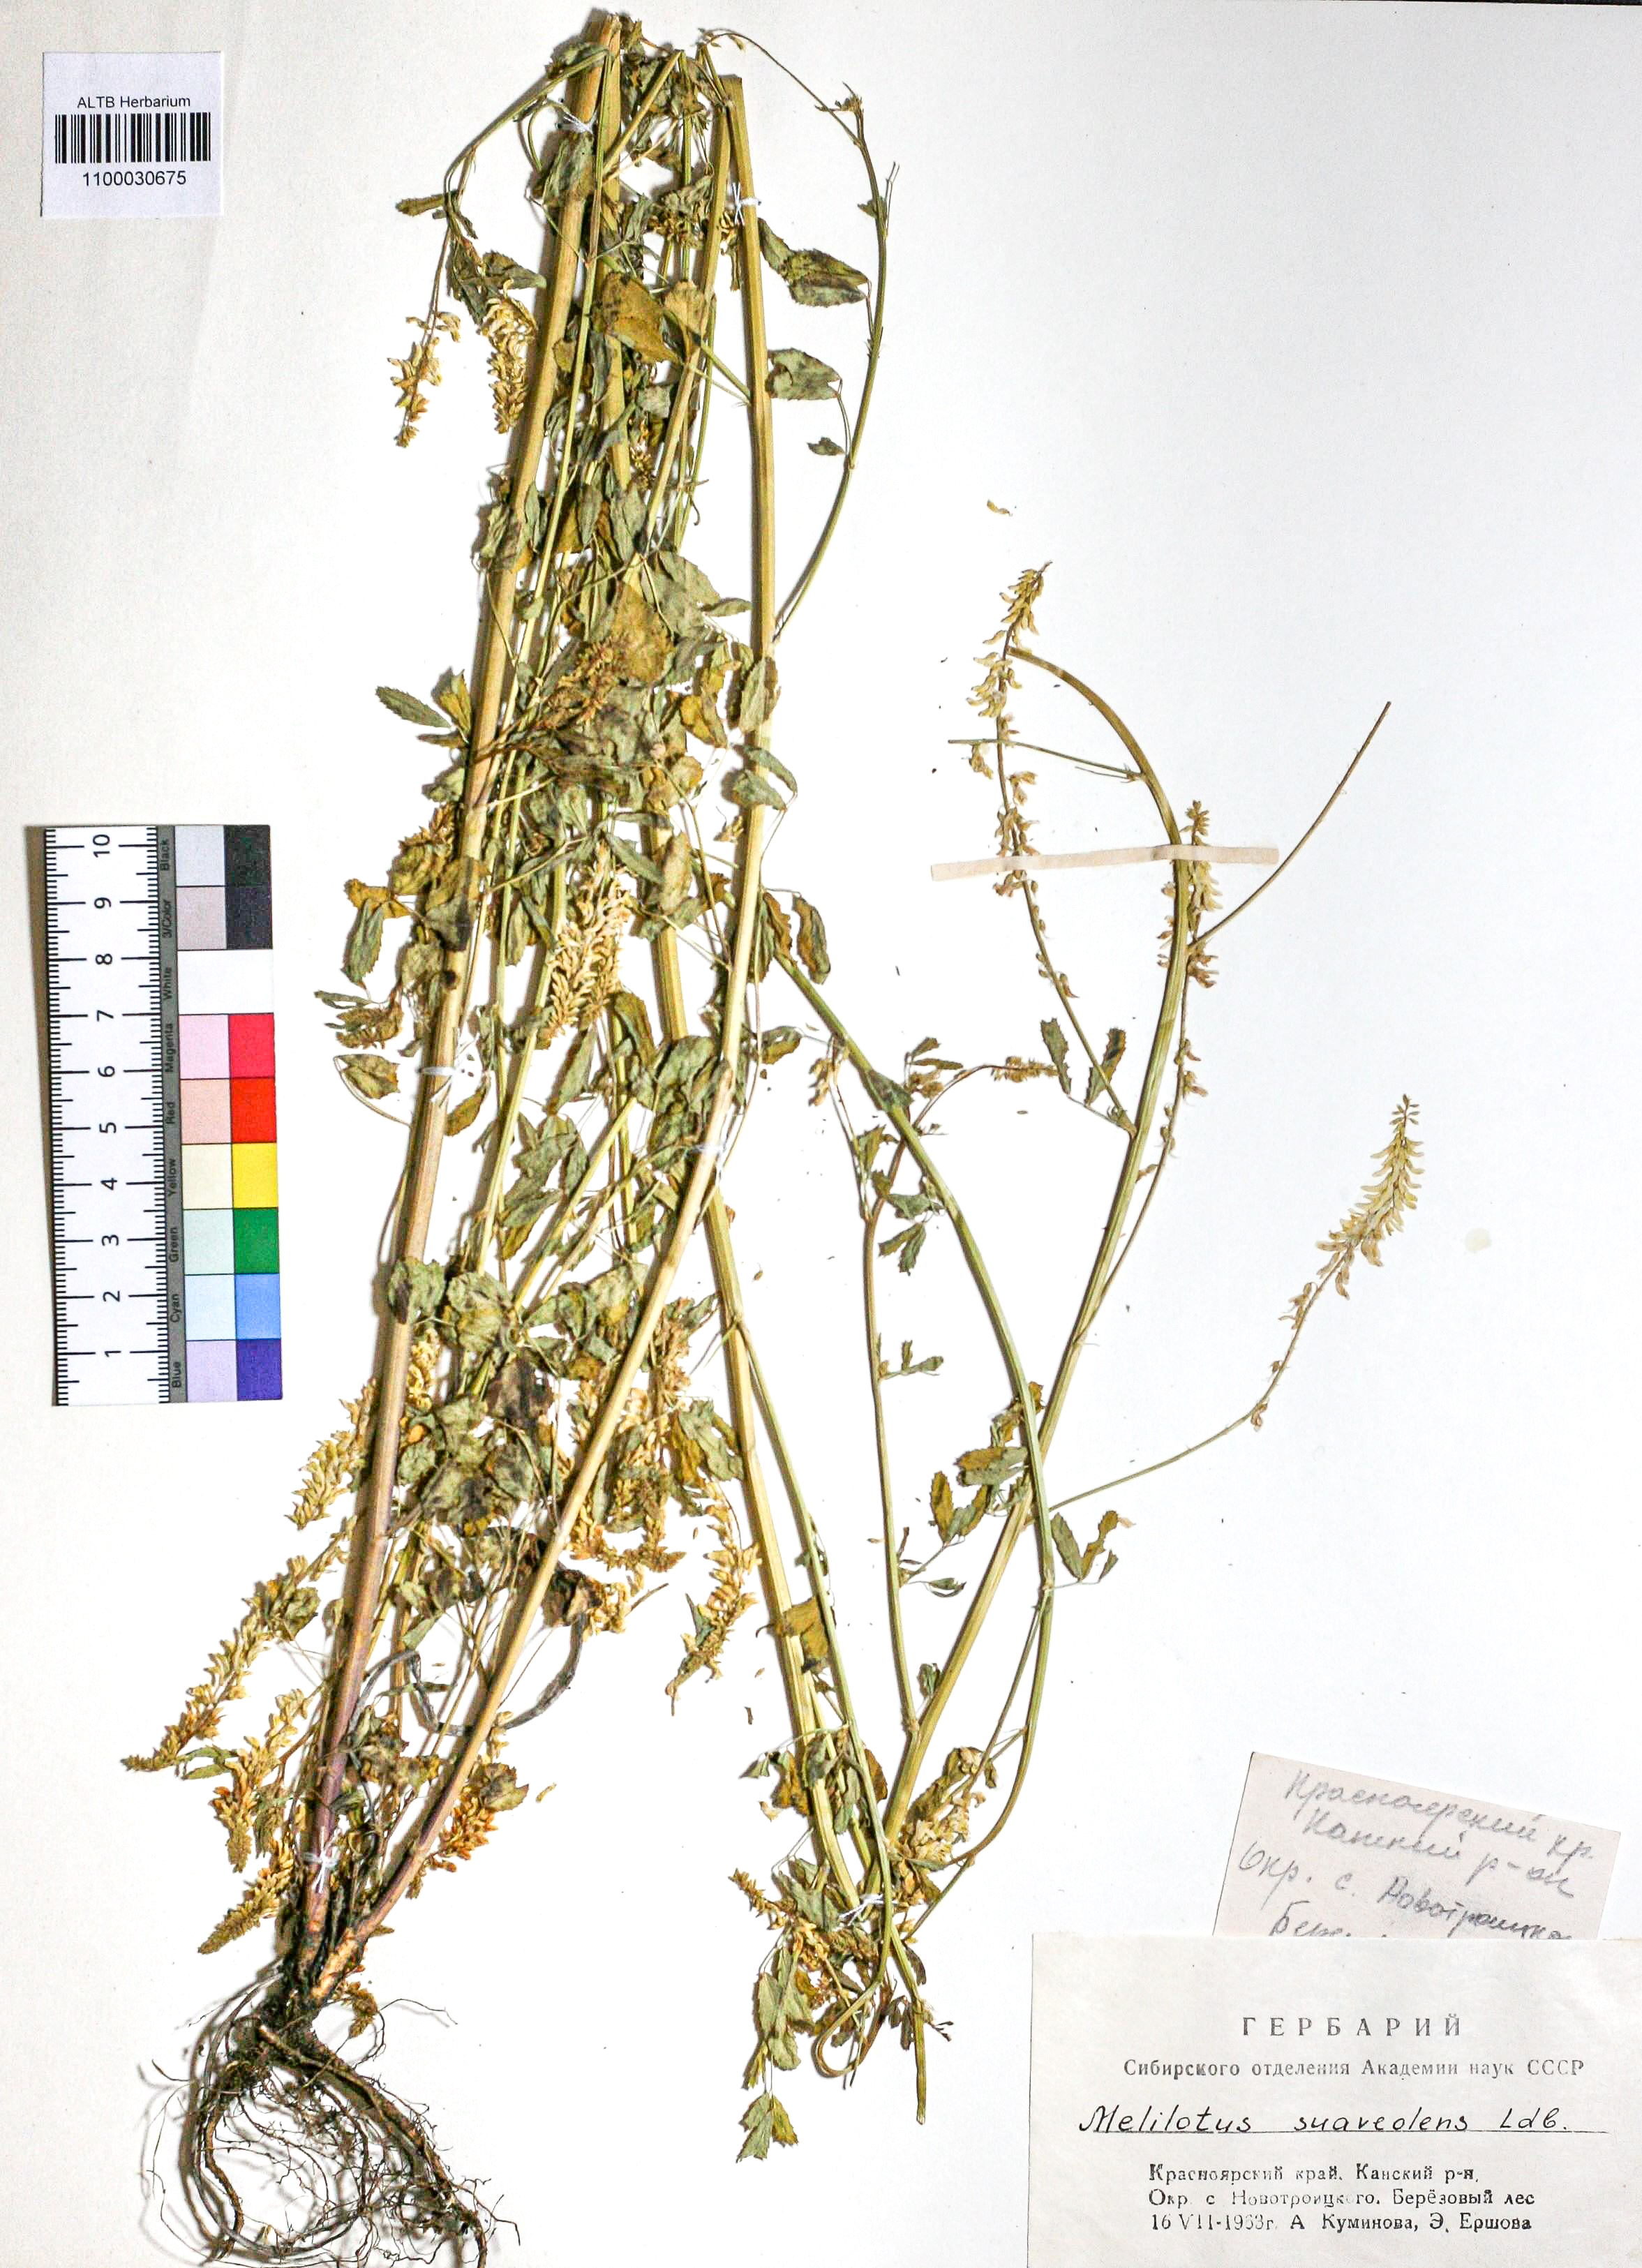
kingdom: Plantae
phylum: Tracheophyta
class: Magnoliopsida
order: Fabales
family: Fabaceae
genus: Melilotus
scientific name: Melilotus suaveolens
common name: Daghestan sweet-clover
